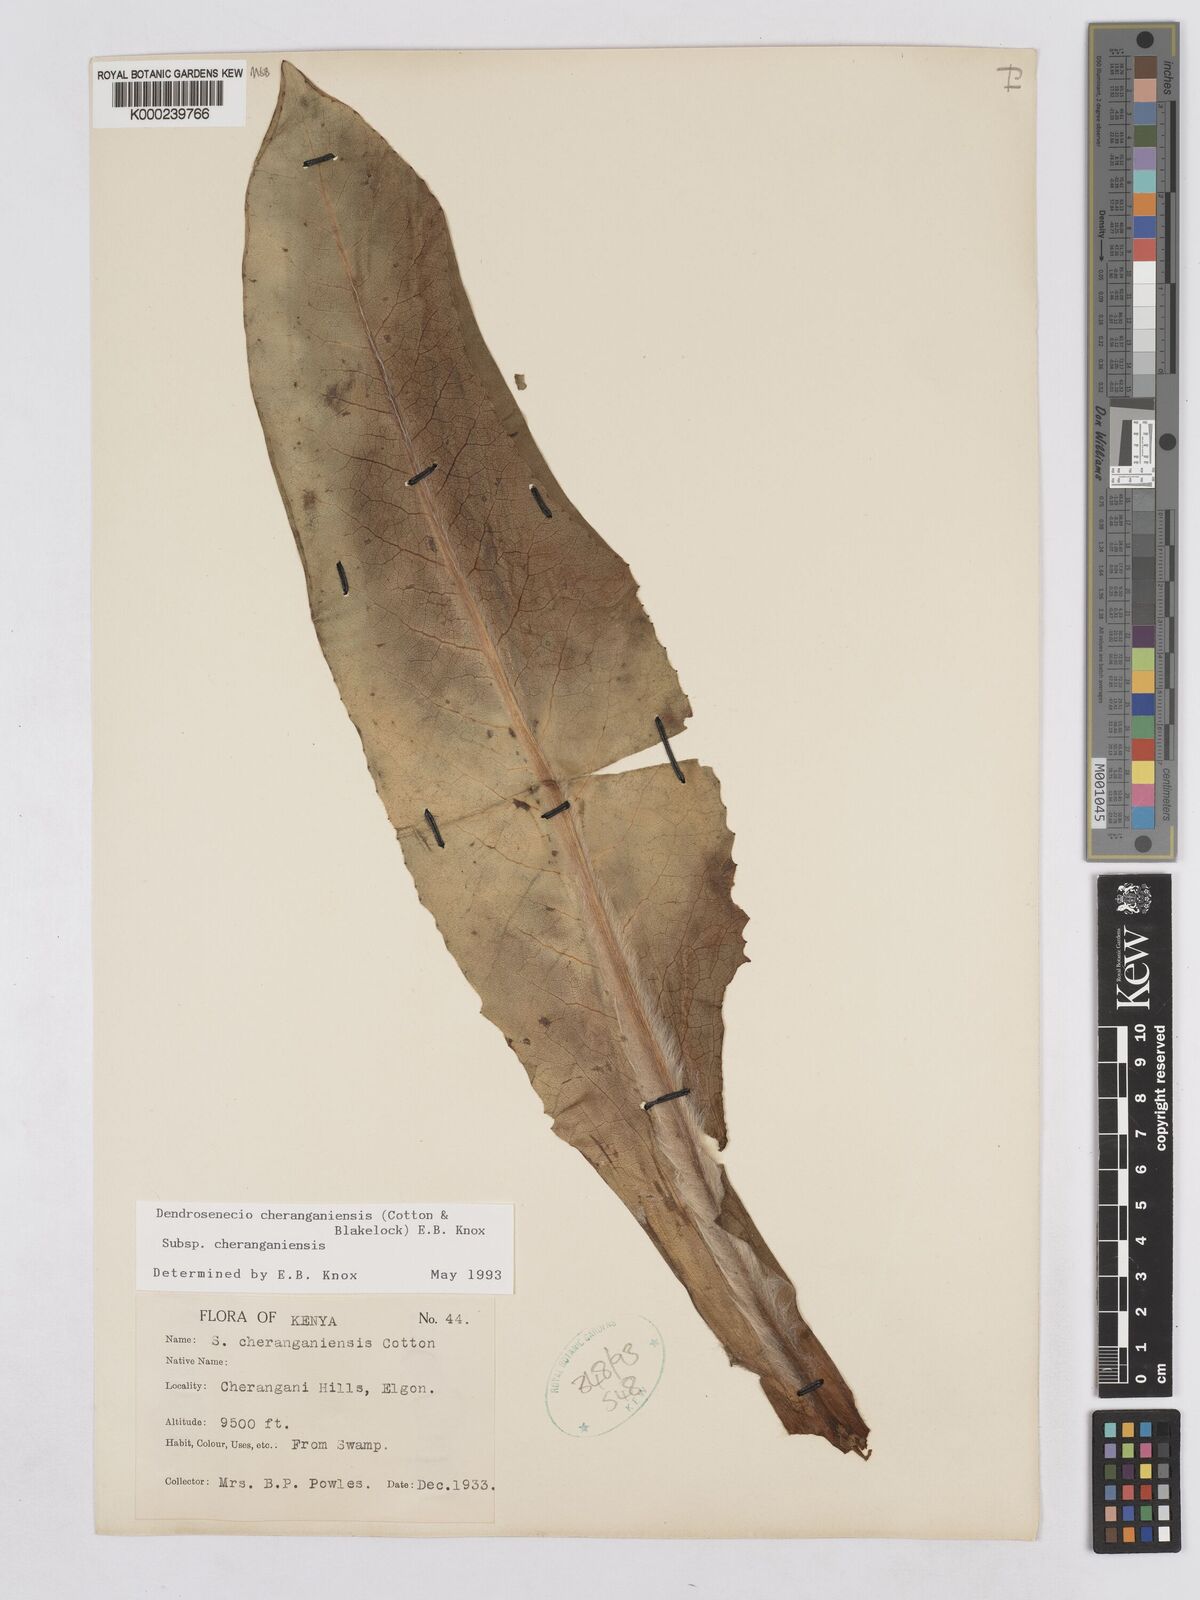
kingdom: Plantae
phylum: Tracheophyta
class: Magnoliopsida
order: Asterales
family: Asteraceae
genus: Dendrosenecio
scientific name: Dendrosenecio cheranganiensis
